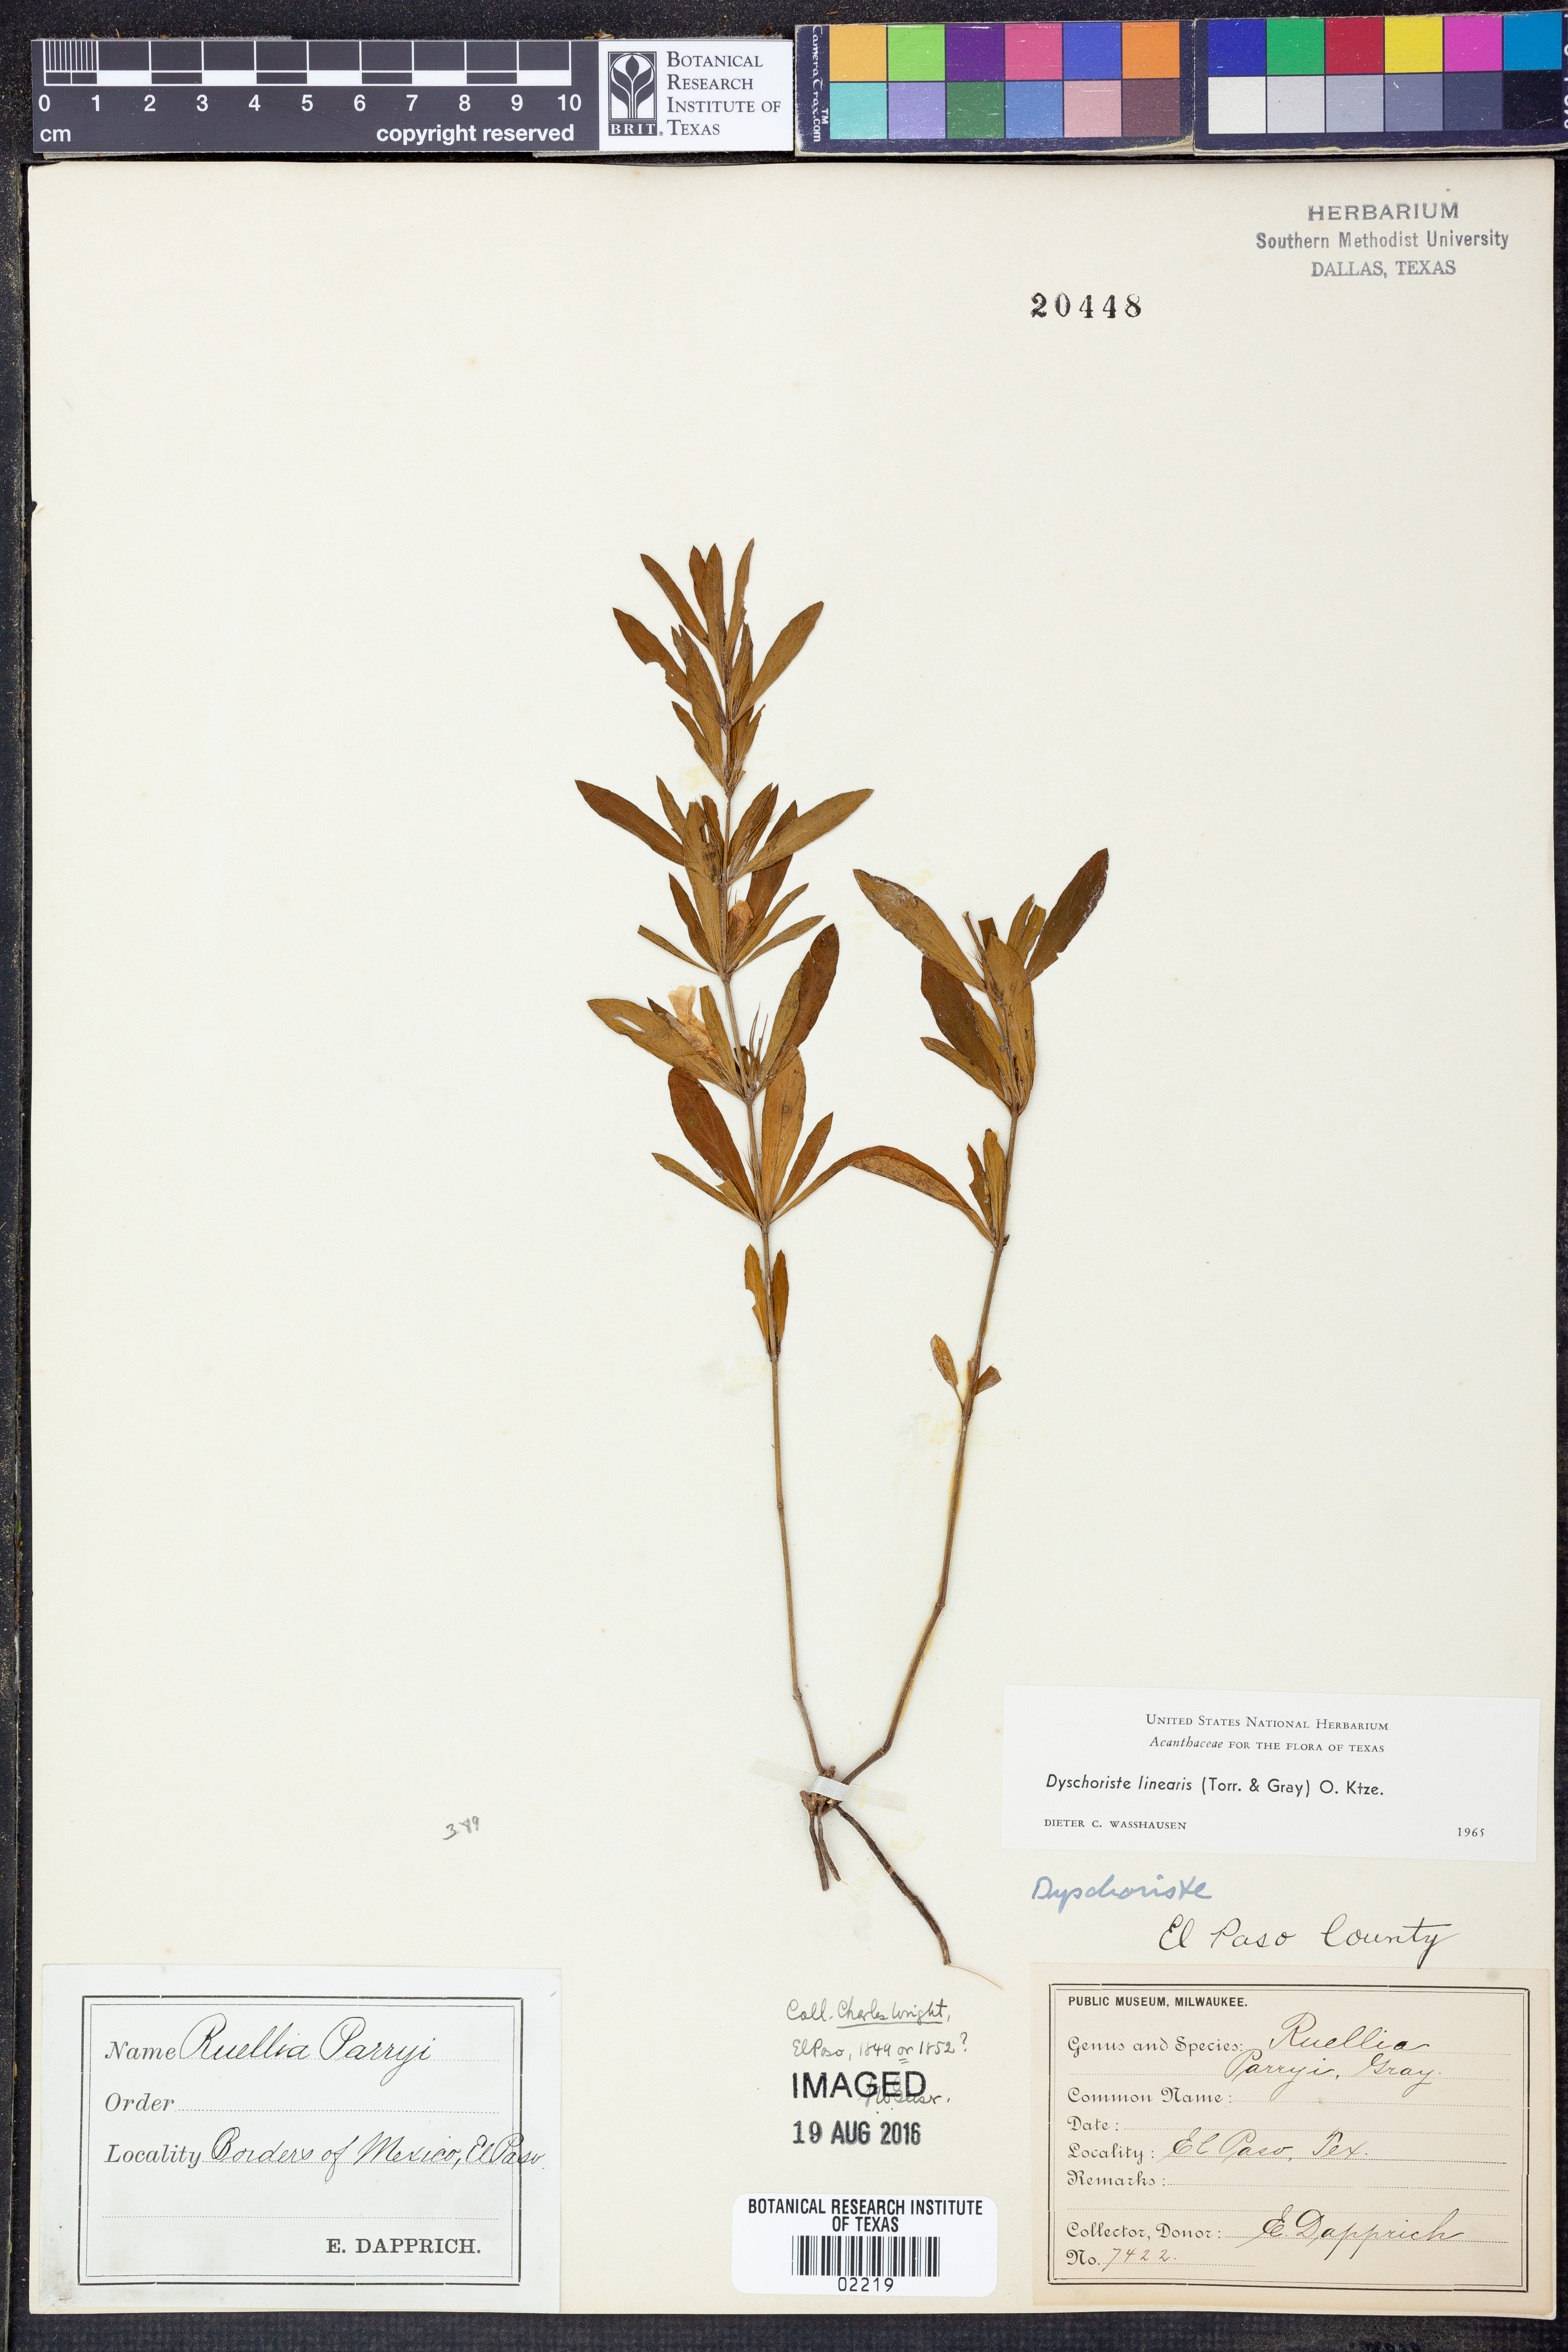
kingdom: Plantae
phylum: Tracheophyta
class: Magnoliopsida
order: Lamiales
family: Acanthaceae
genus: Dyschoriste
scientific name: Dyschoriste linearis
